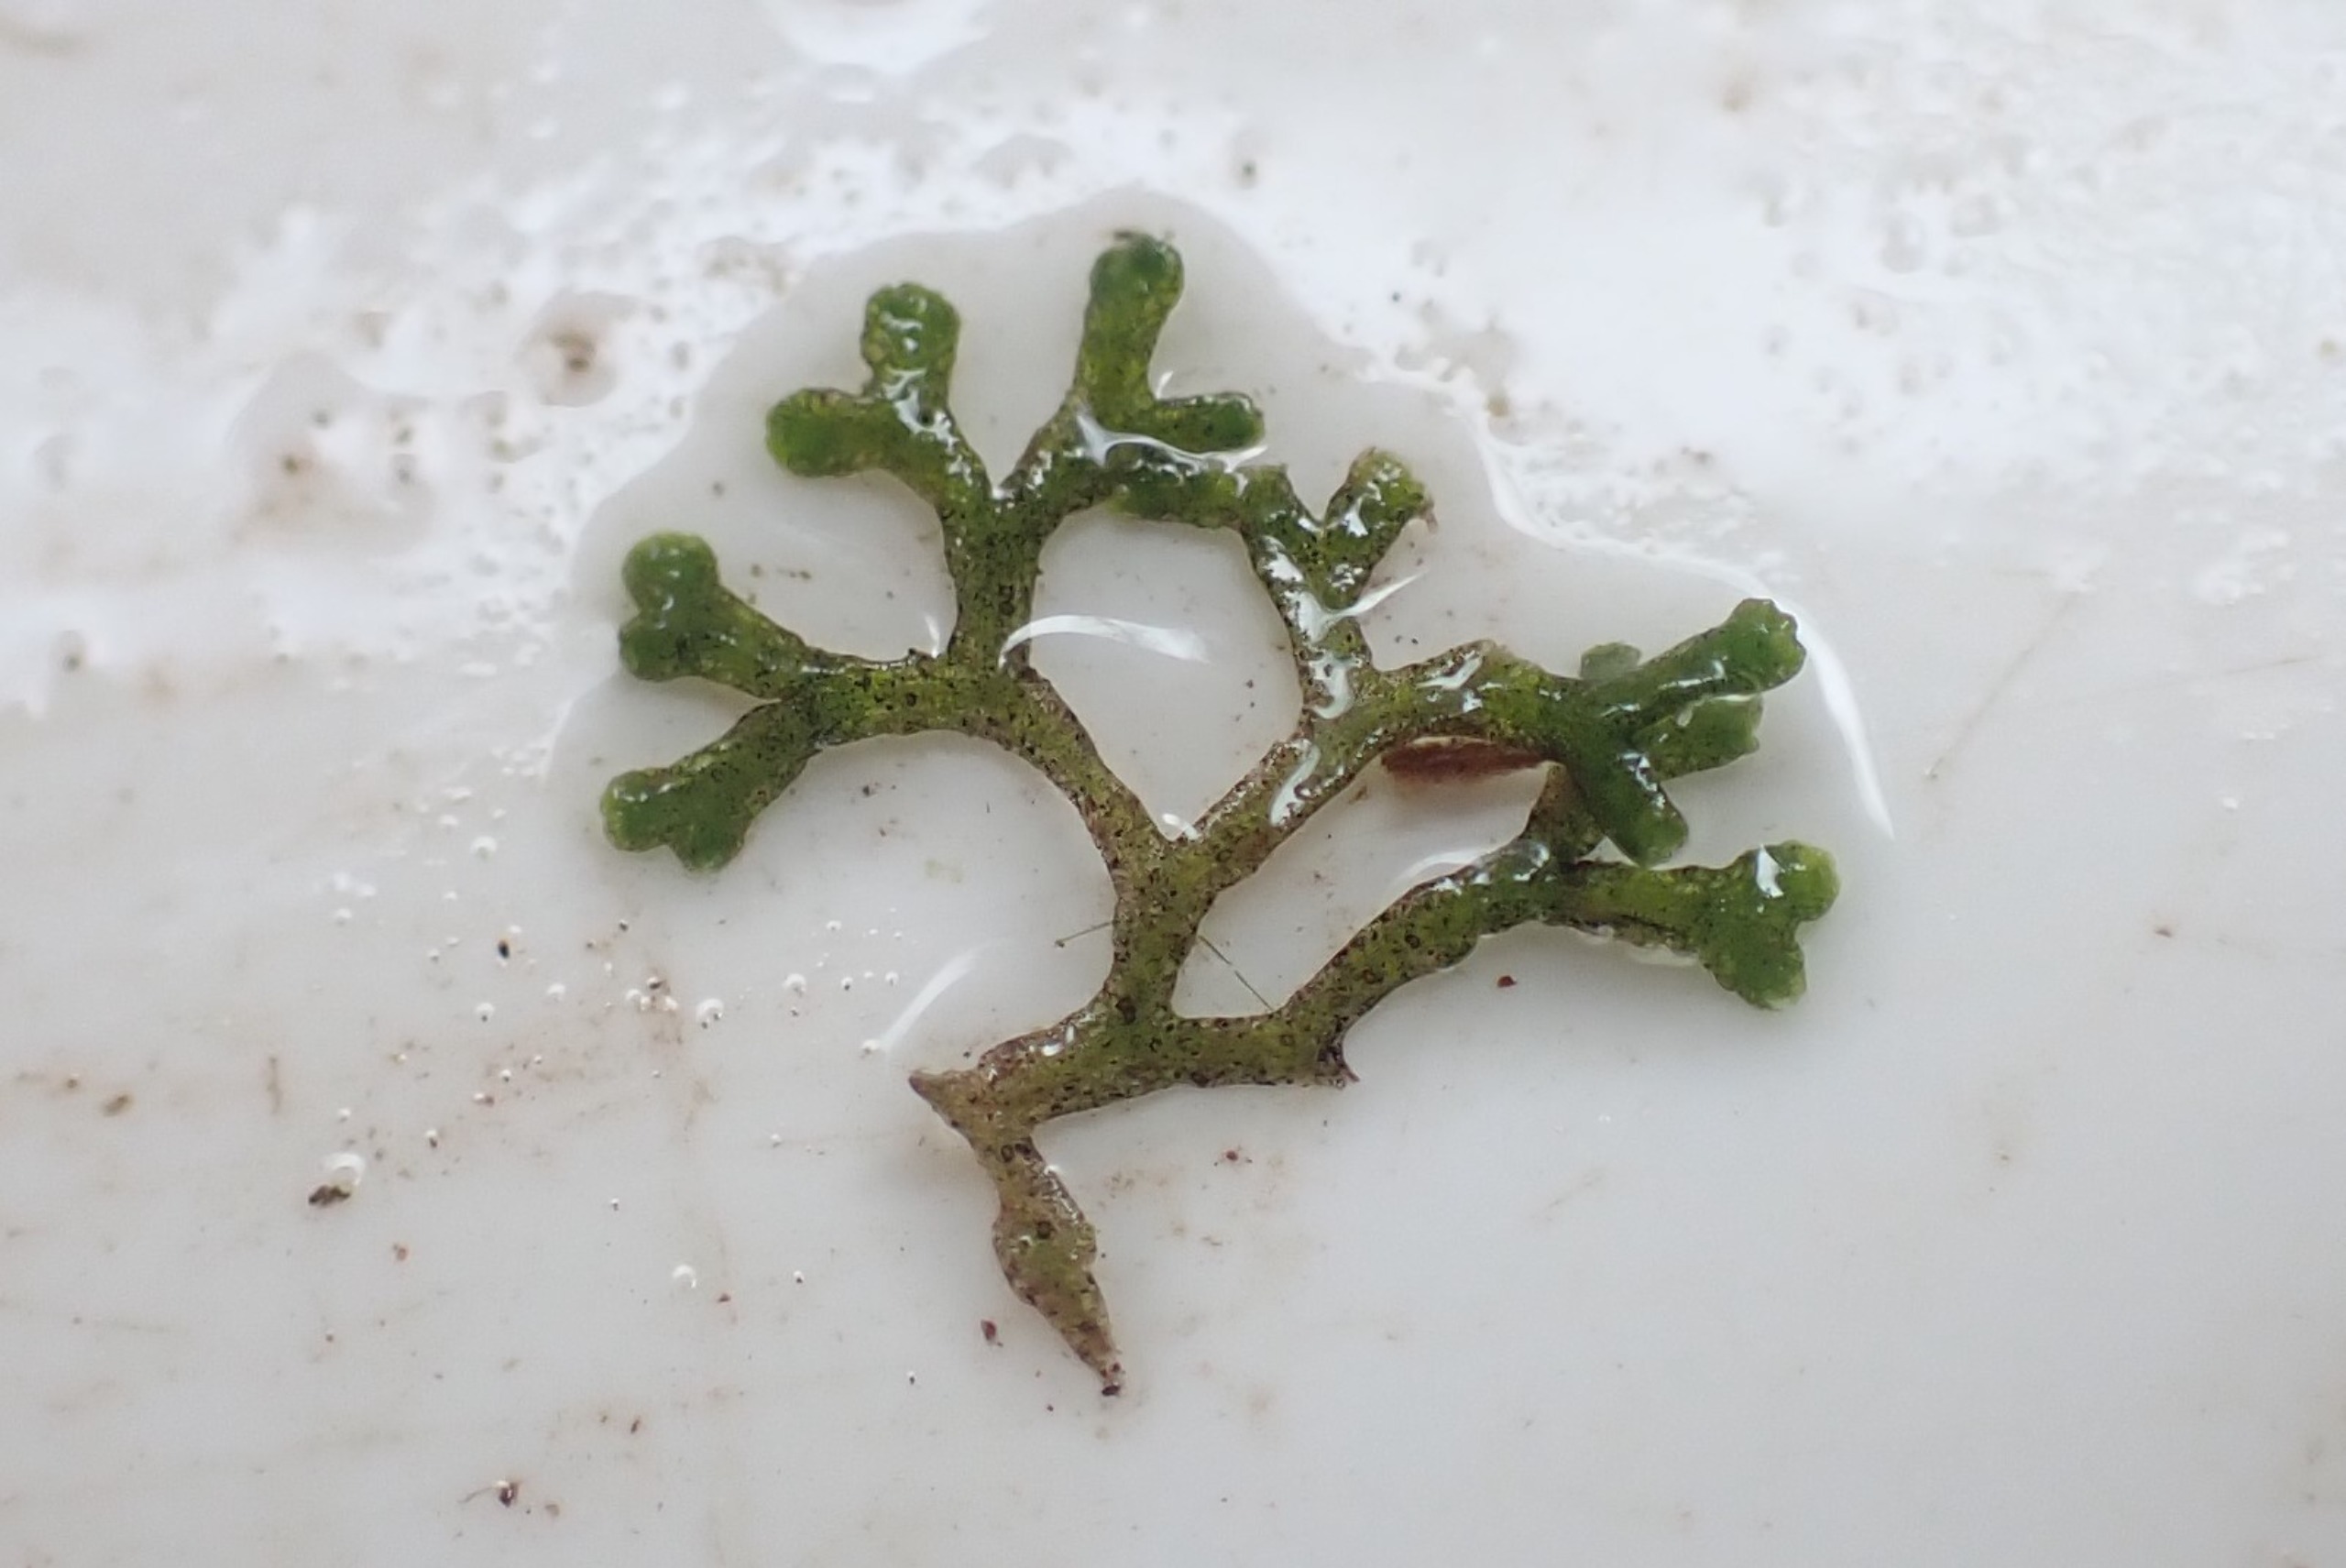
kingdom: Plantae
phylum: Marchantiophyta
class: Marchantiopsida
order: Marchantiales
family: Ricciaceae
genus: Riccia
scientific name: Riccia fluitans
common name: Svømmende stjerneløv
